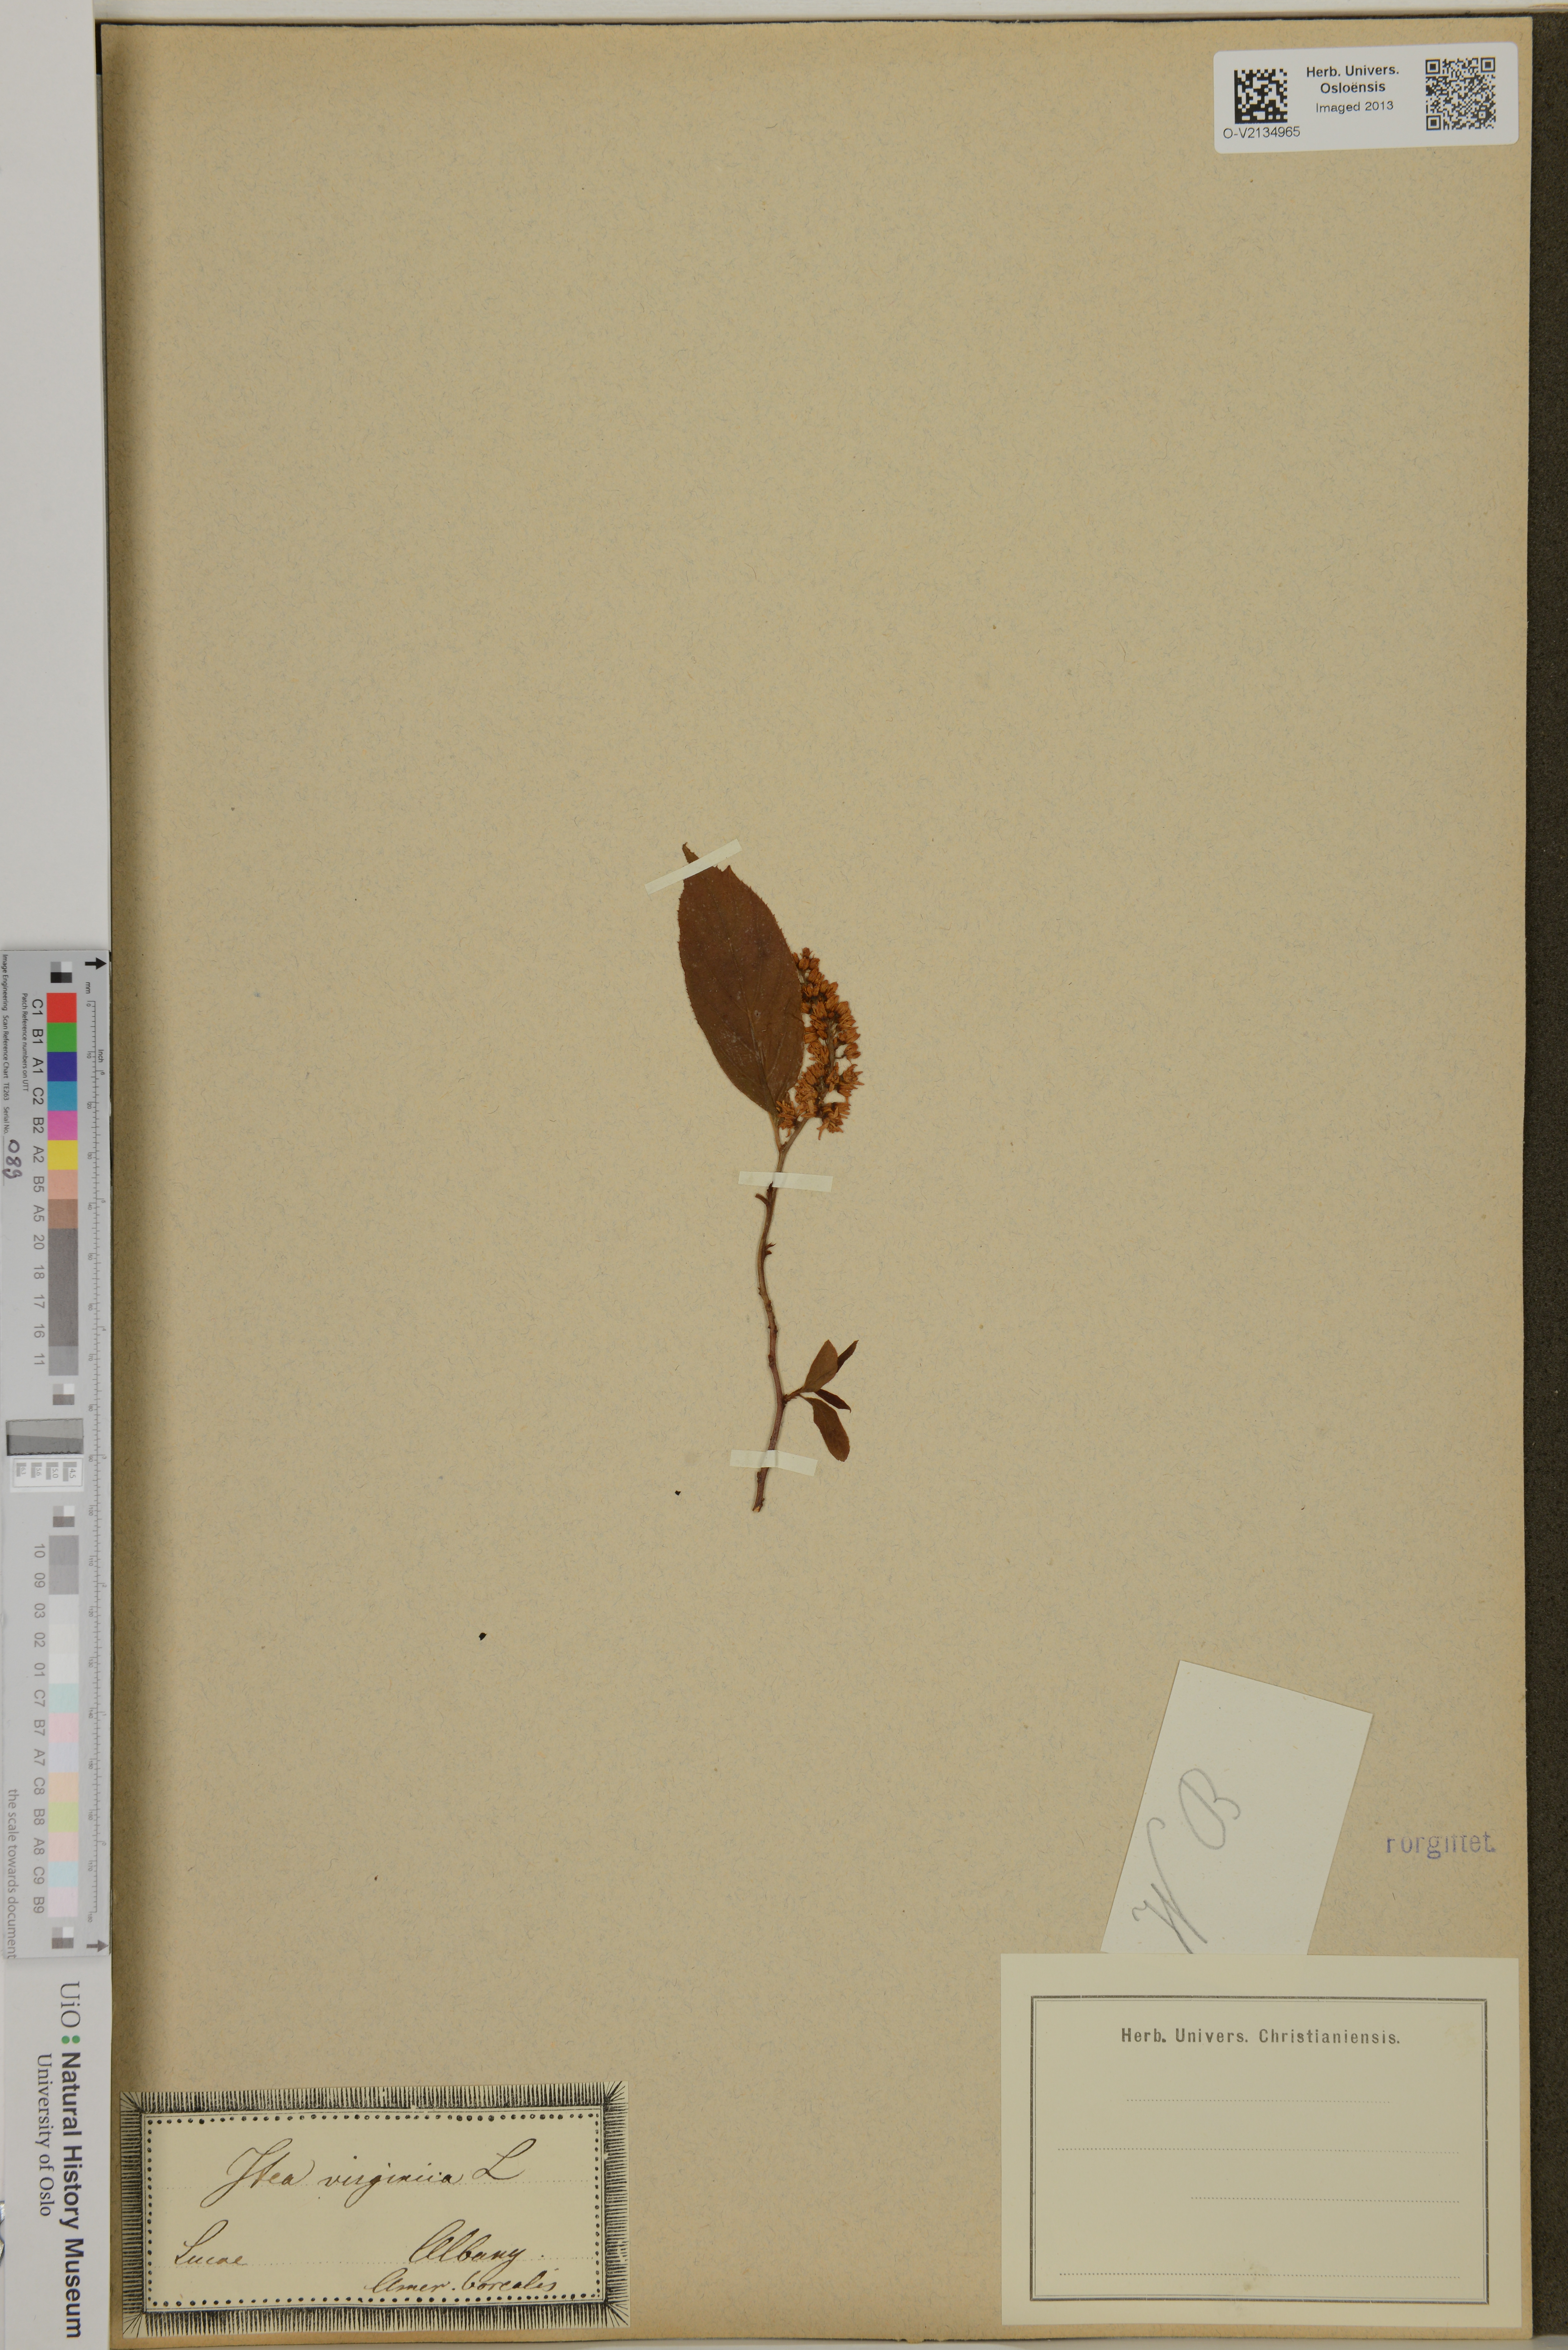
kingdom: Plantae
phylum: Tracheophyta
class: Magnoliopsida
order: Saxifragales
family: Iteaceae
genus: Itea
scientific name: Itea virginica
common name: Sweetspire
